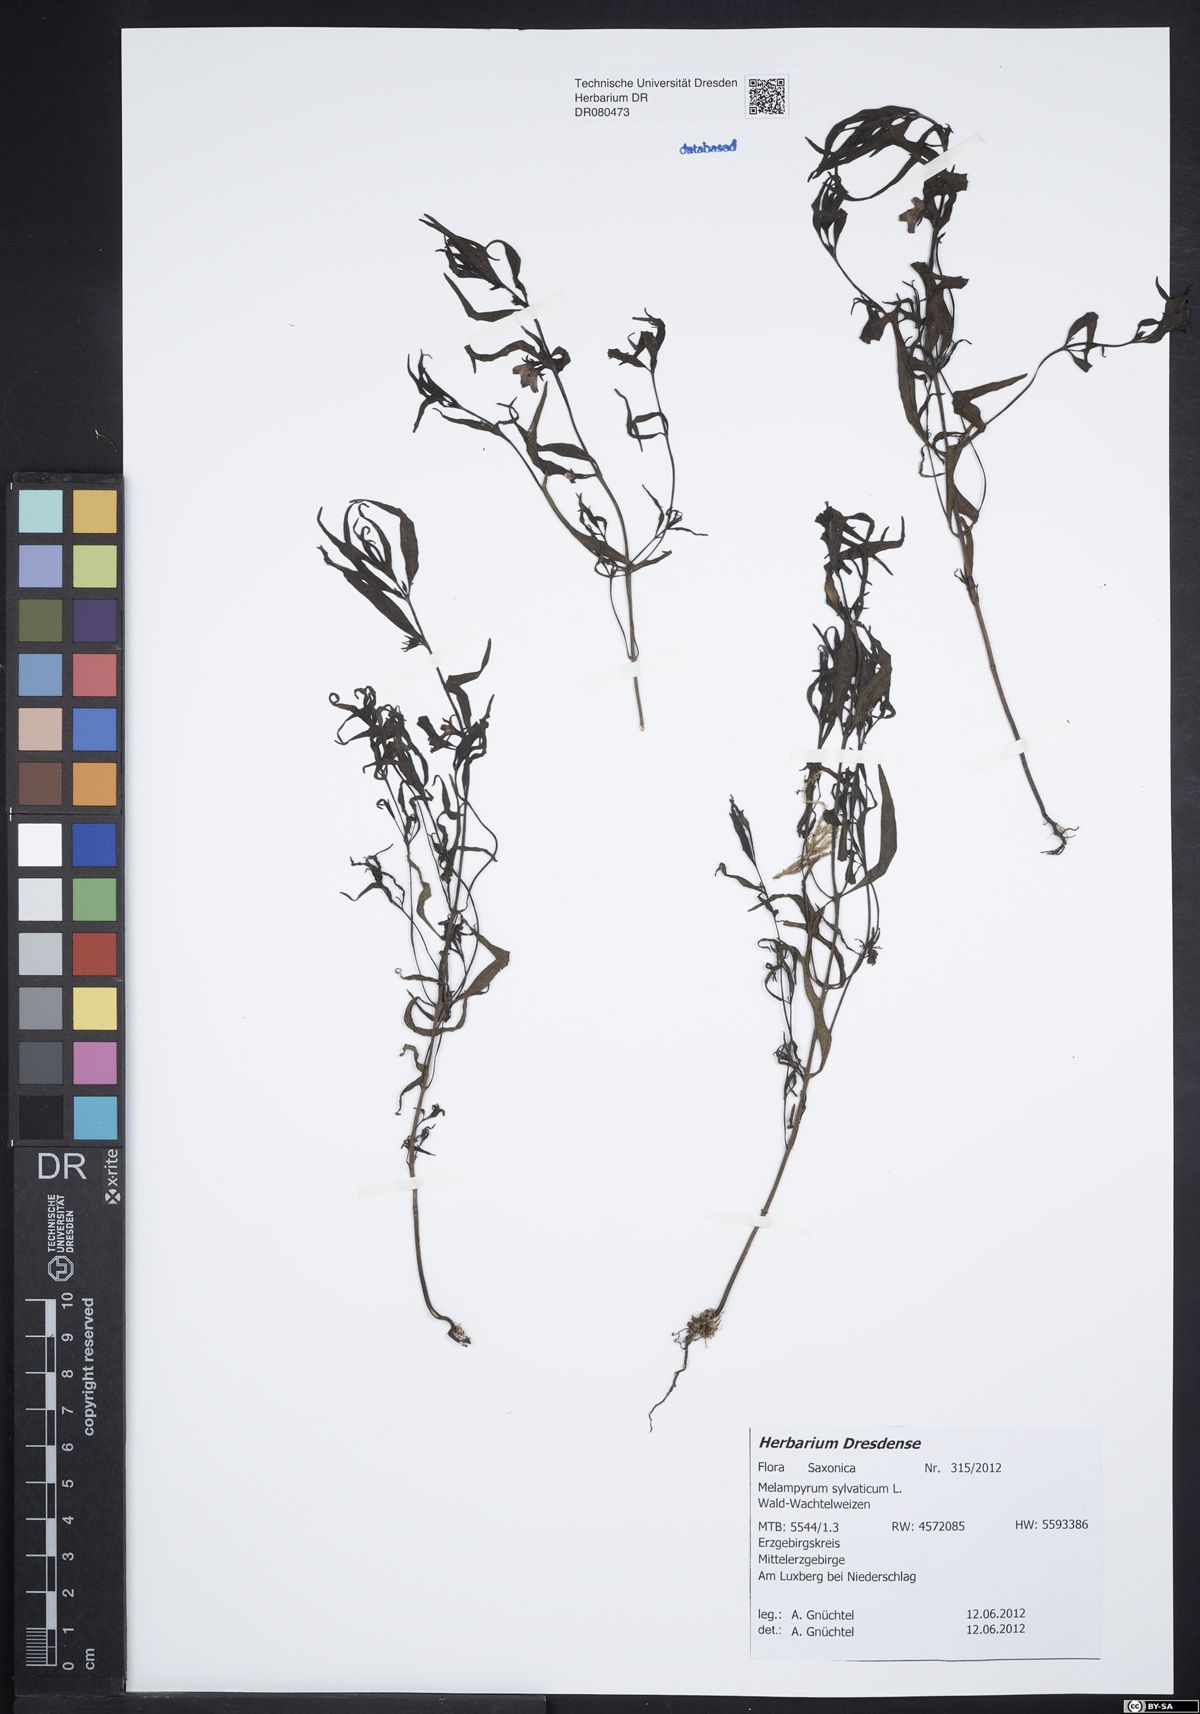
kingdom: Plantae
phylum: Tracheophyta
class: Magnoliopsida
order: Lamiales
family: Orobanchaceae
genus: Melampyrum
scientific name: Melampyrum sylvaticum
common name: Small cow-wheat
